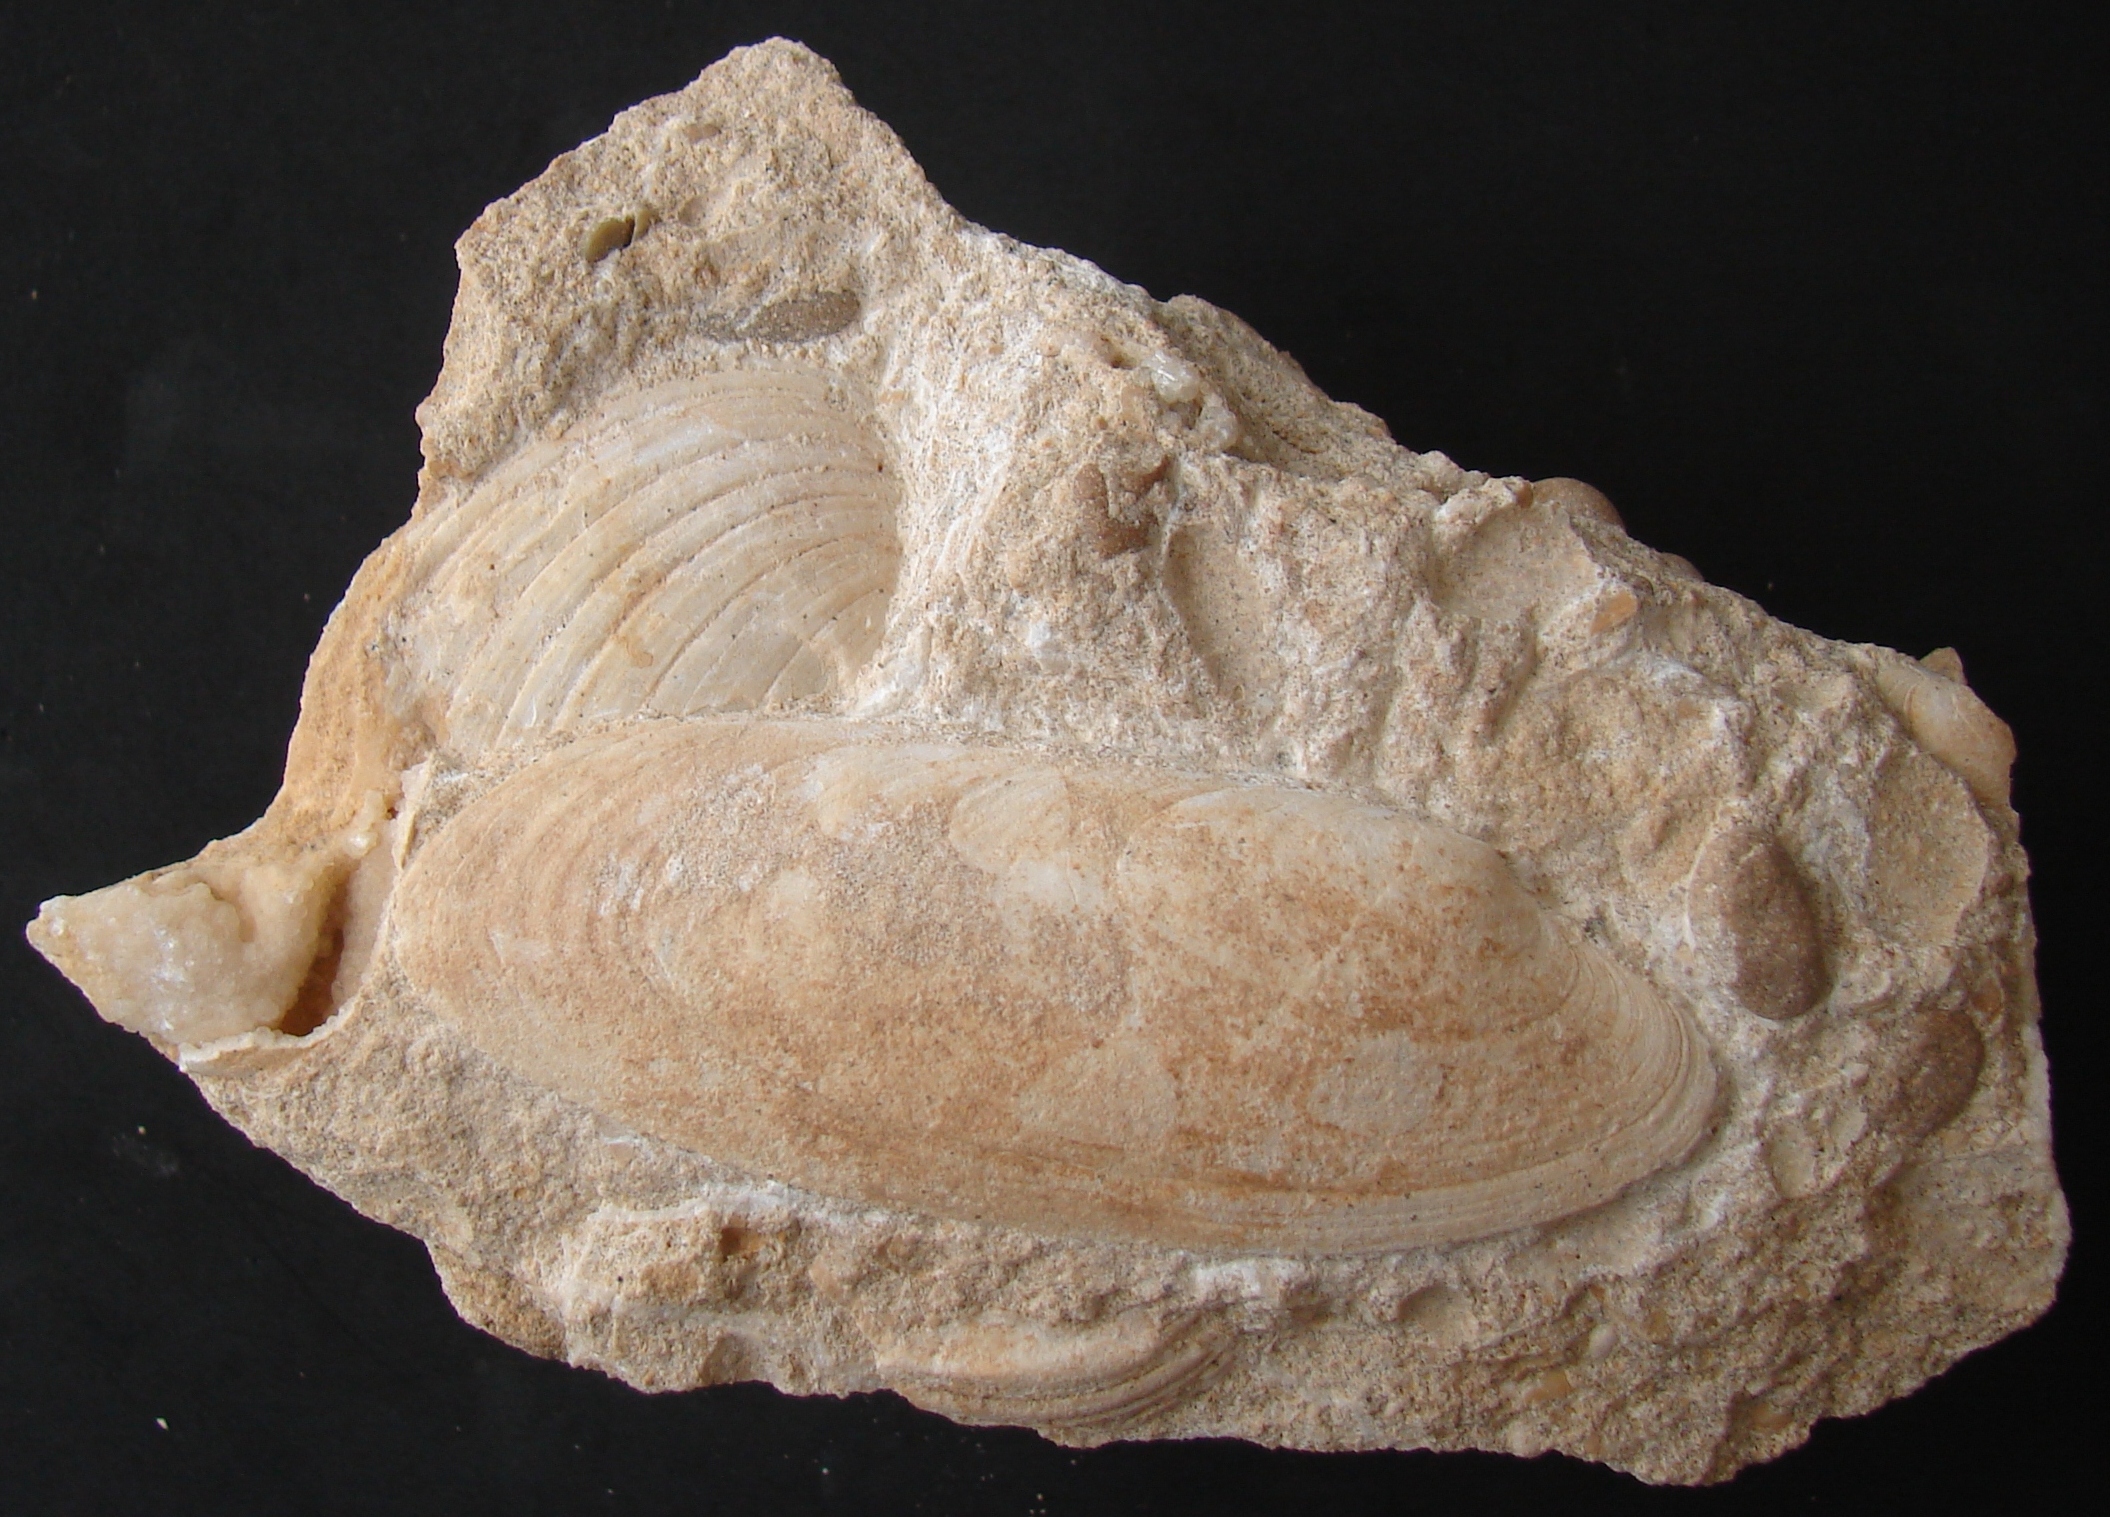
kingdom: Animalia
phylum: Mollusca
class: Bivalvia
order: Carditida
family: Cardiniidae
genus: Cardinia
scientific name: Cardinia
